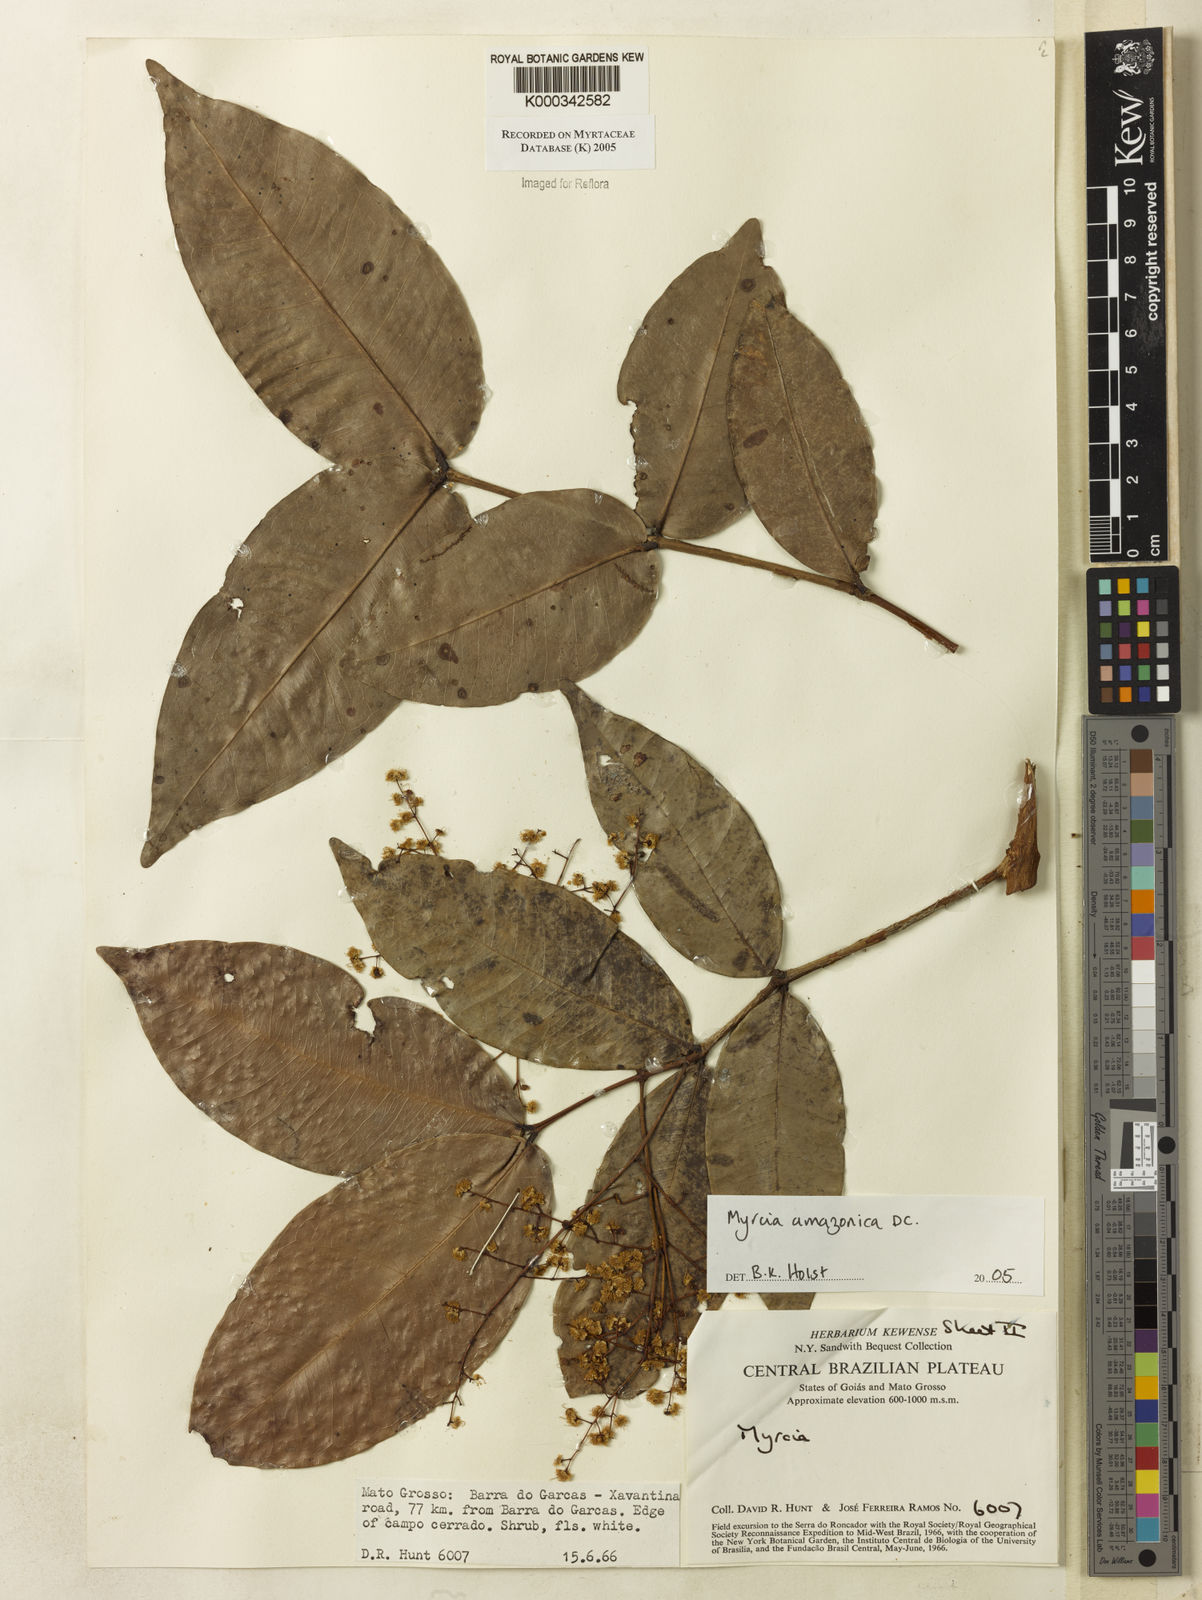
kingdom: Plantae
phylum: Tracheophyta
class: Magnoliopsida
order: Myrtales
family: Myrtaceae
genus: Myrcia
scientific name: Myrcia amazonica
